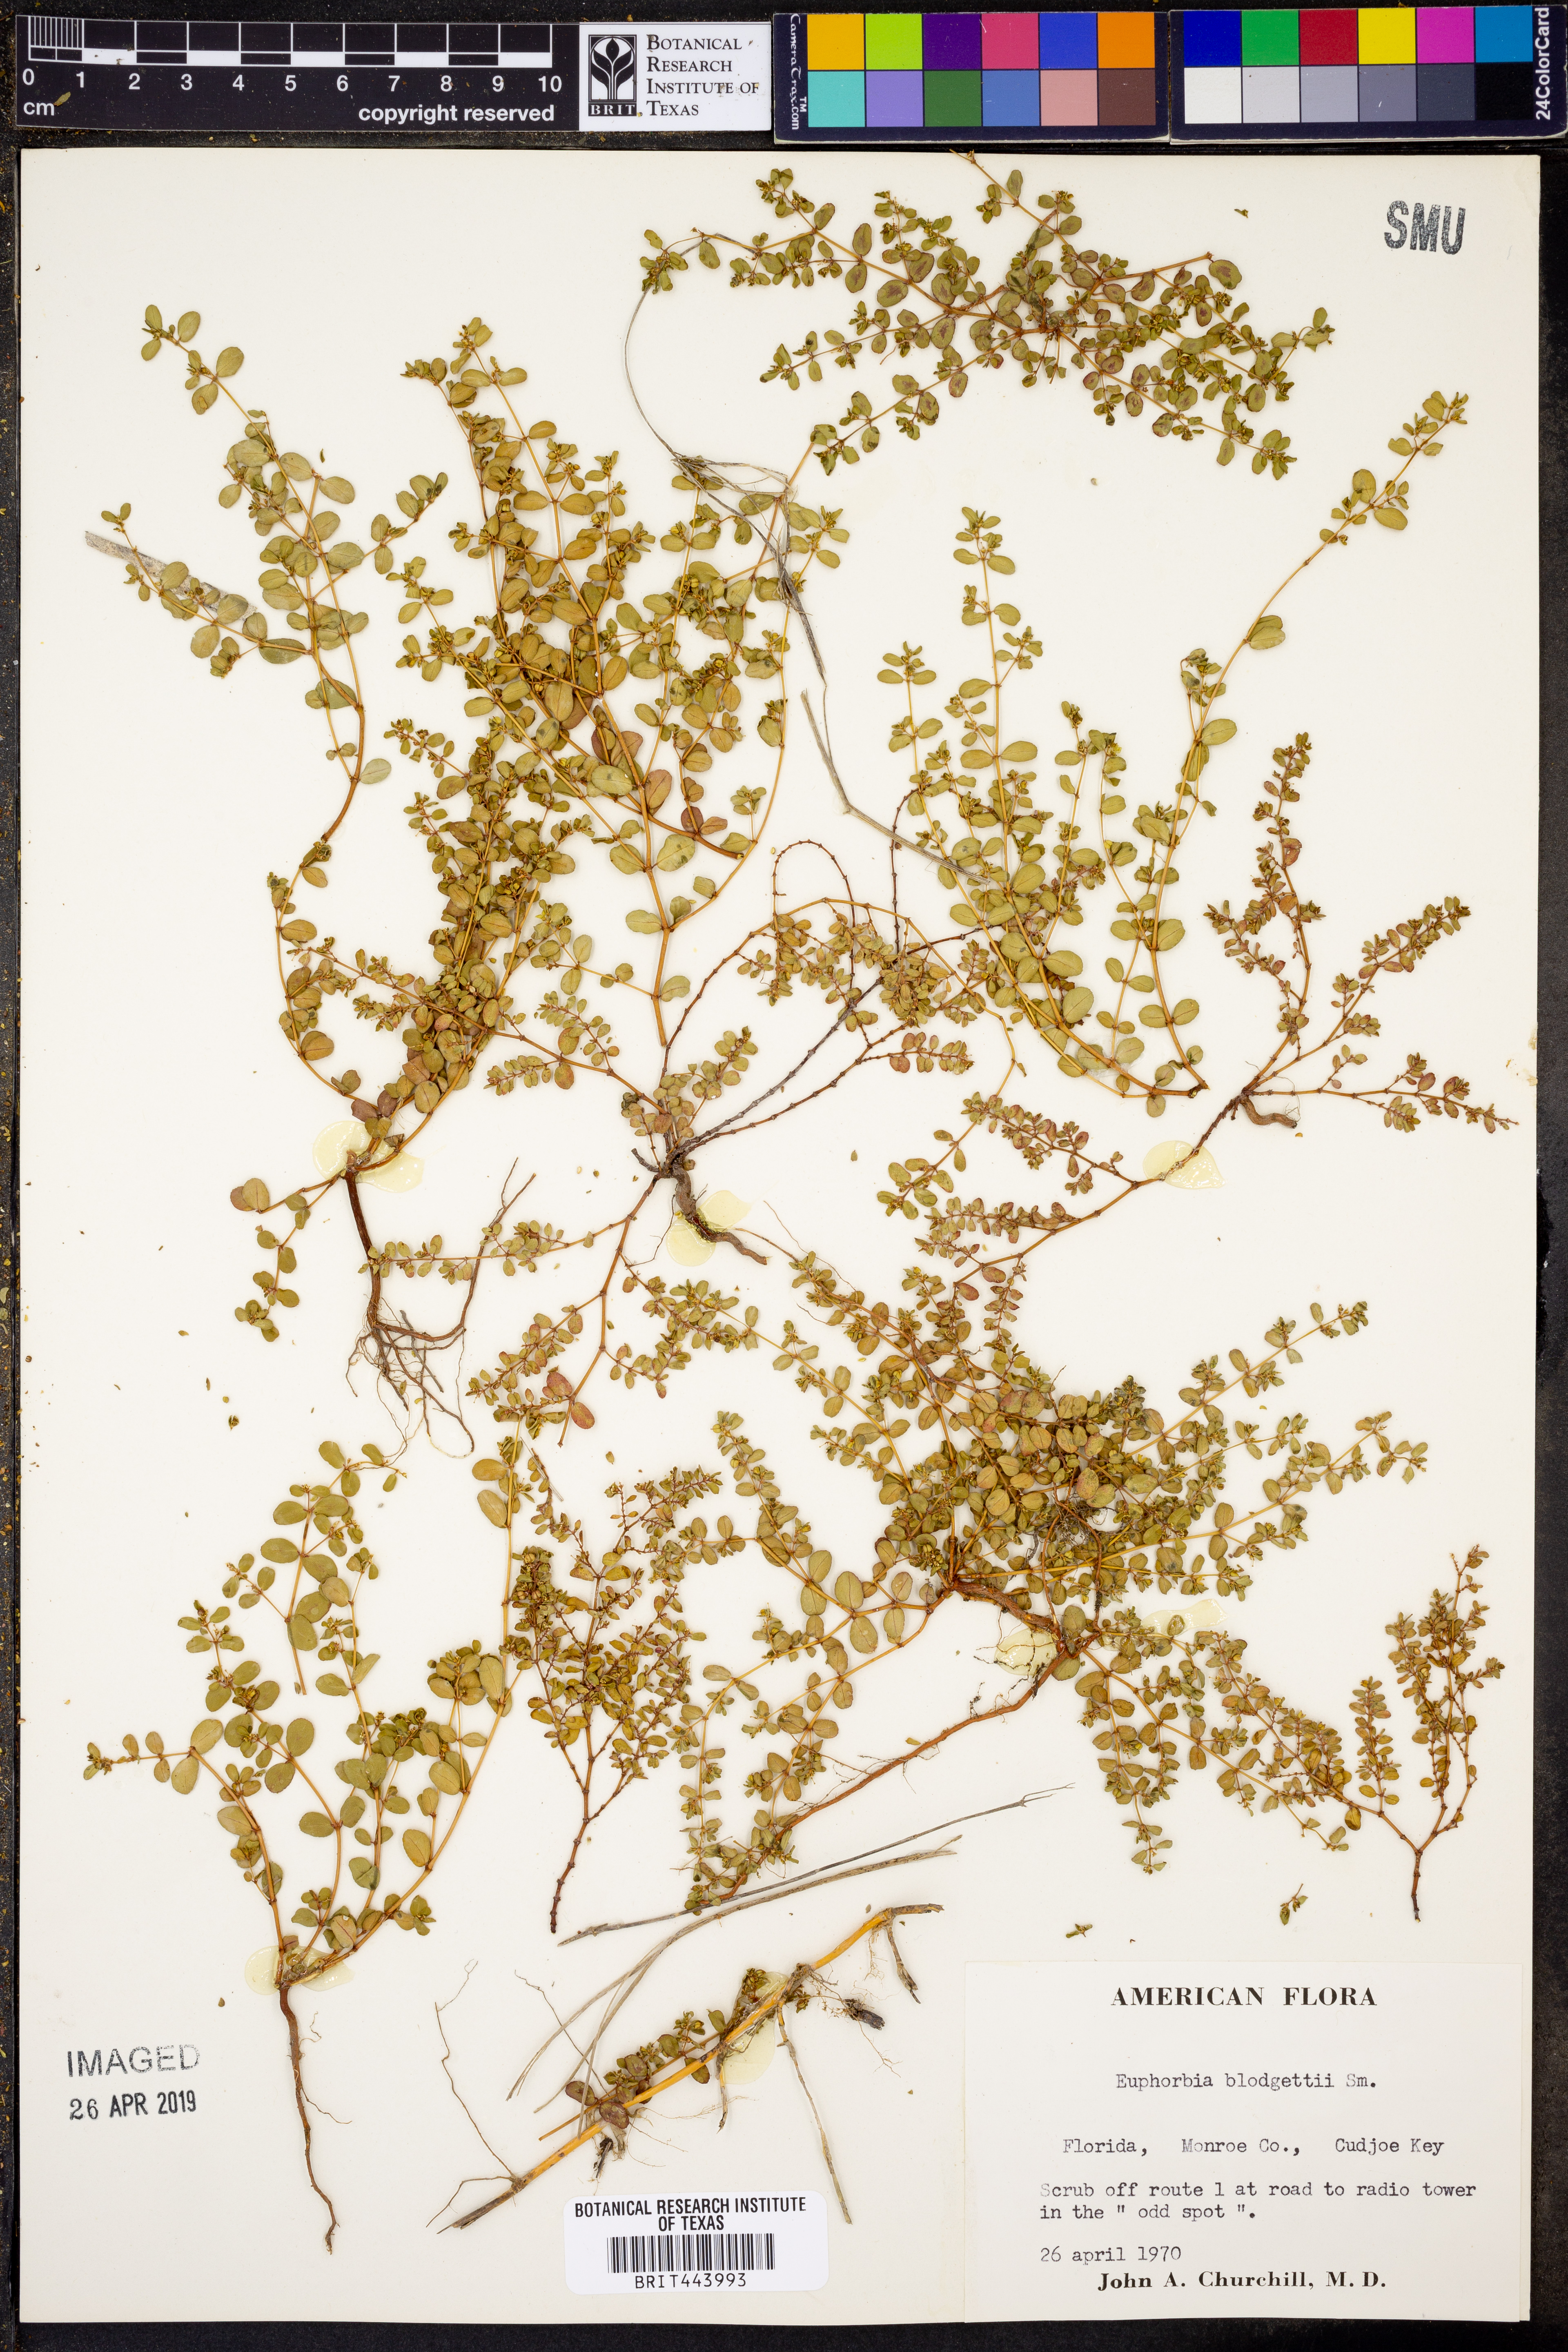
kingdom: Plantae
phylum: Tracheophyta
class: Magnoliopsida
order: Malpighiales
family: Euphorbiaceae
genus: Euphorbia
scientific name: Euphorbia blodgettii
